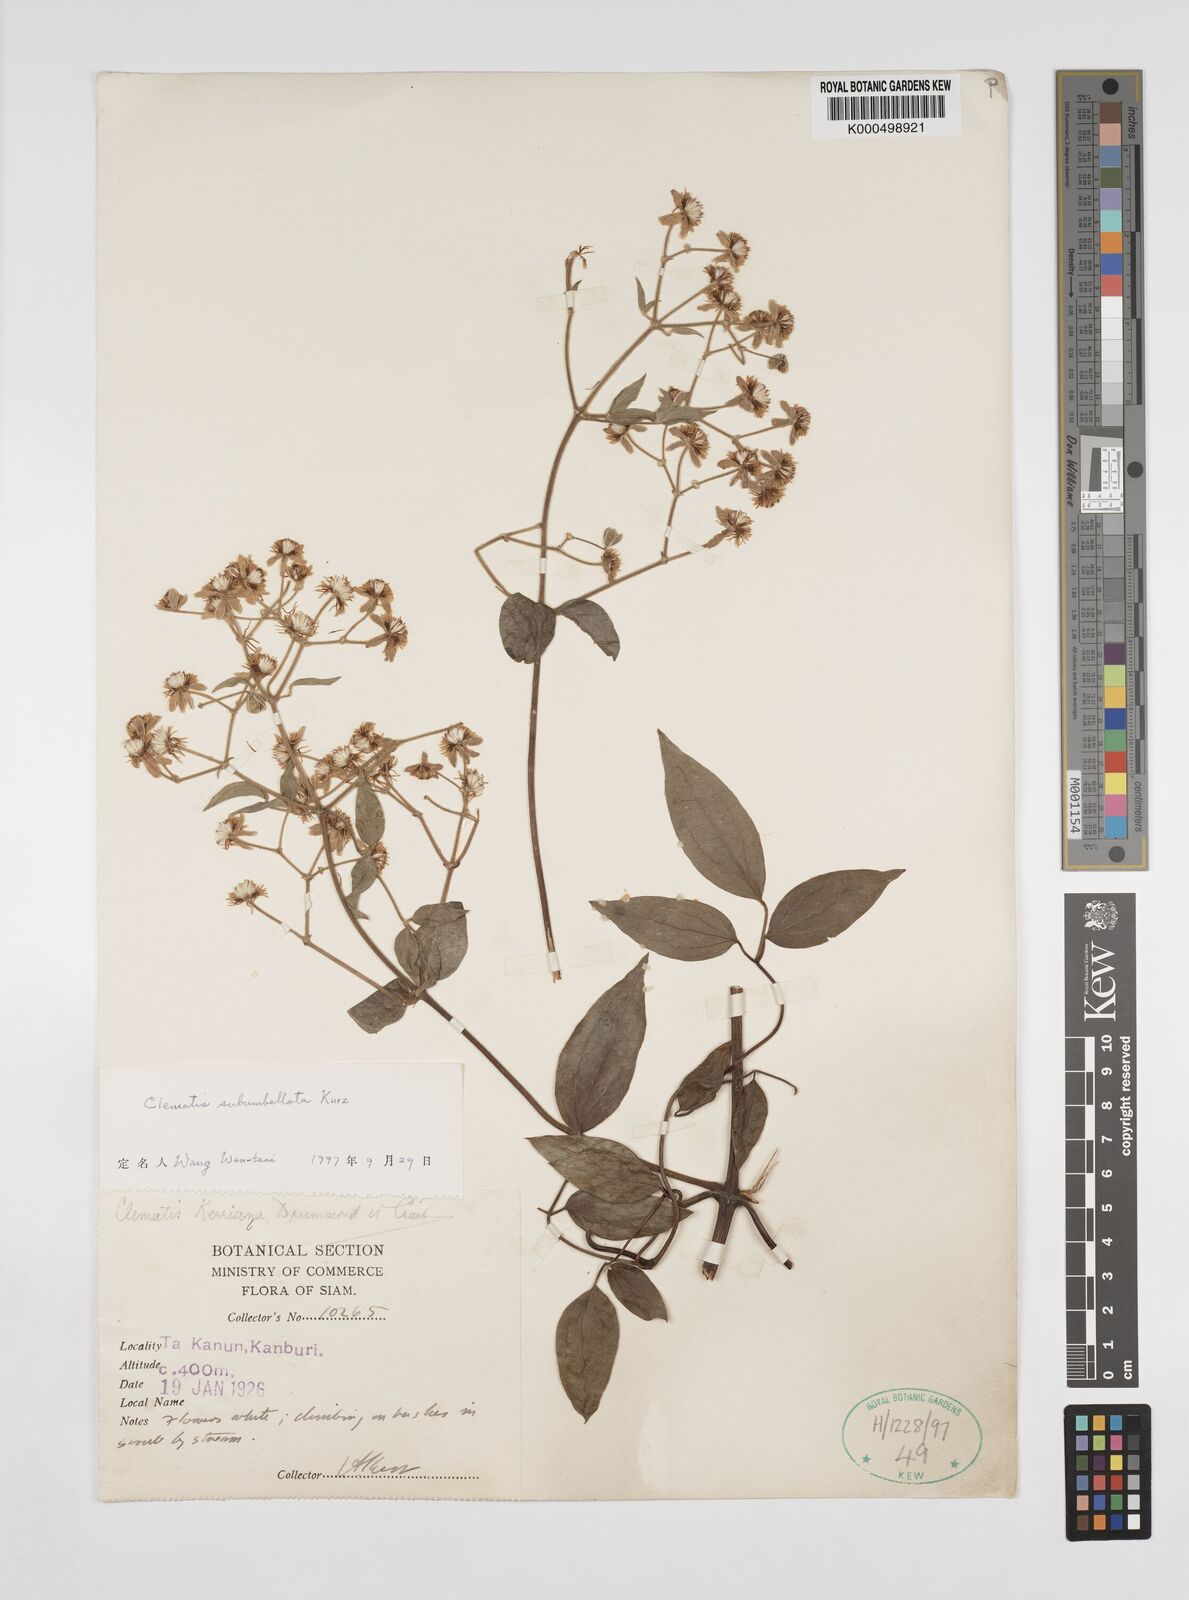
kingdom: Plantae
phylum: Tracheophyta
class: Magnoliopsida
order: Ranunculales
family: Ranunculaceae
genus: Clematis
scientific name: Clematis subumbellata
